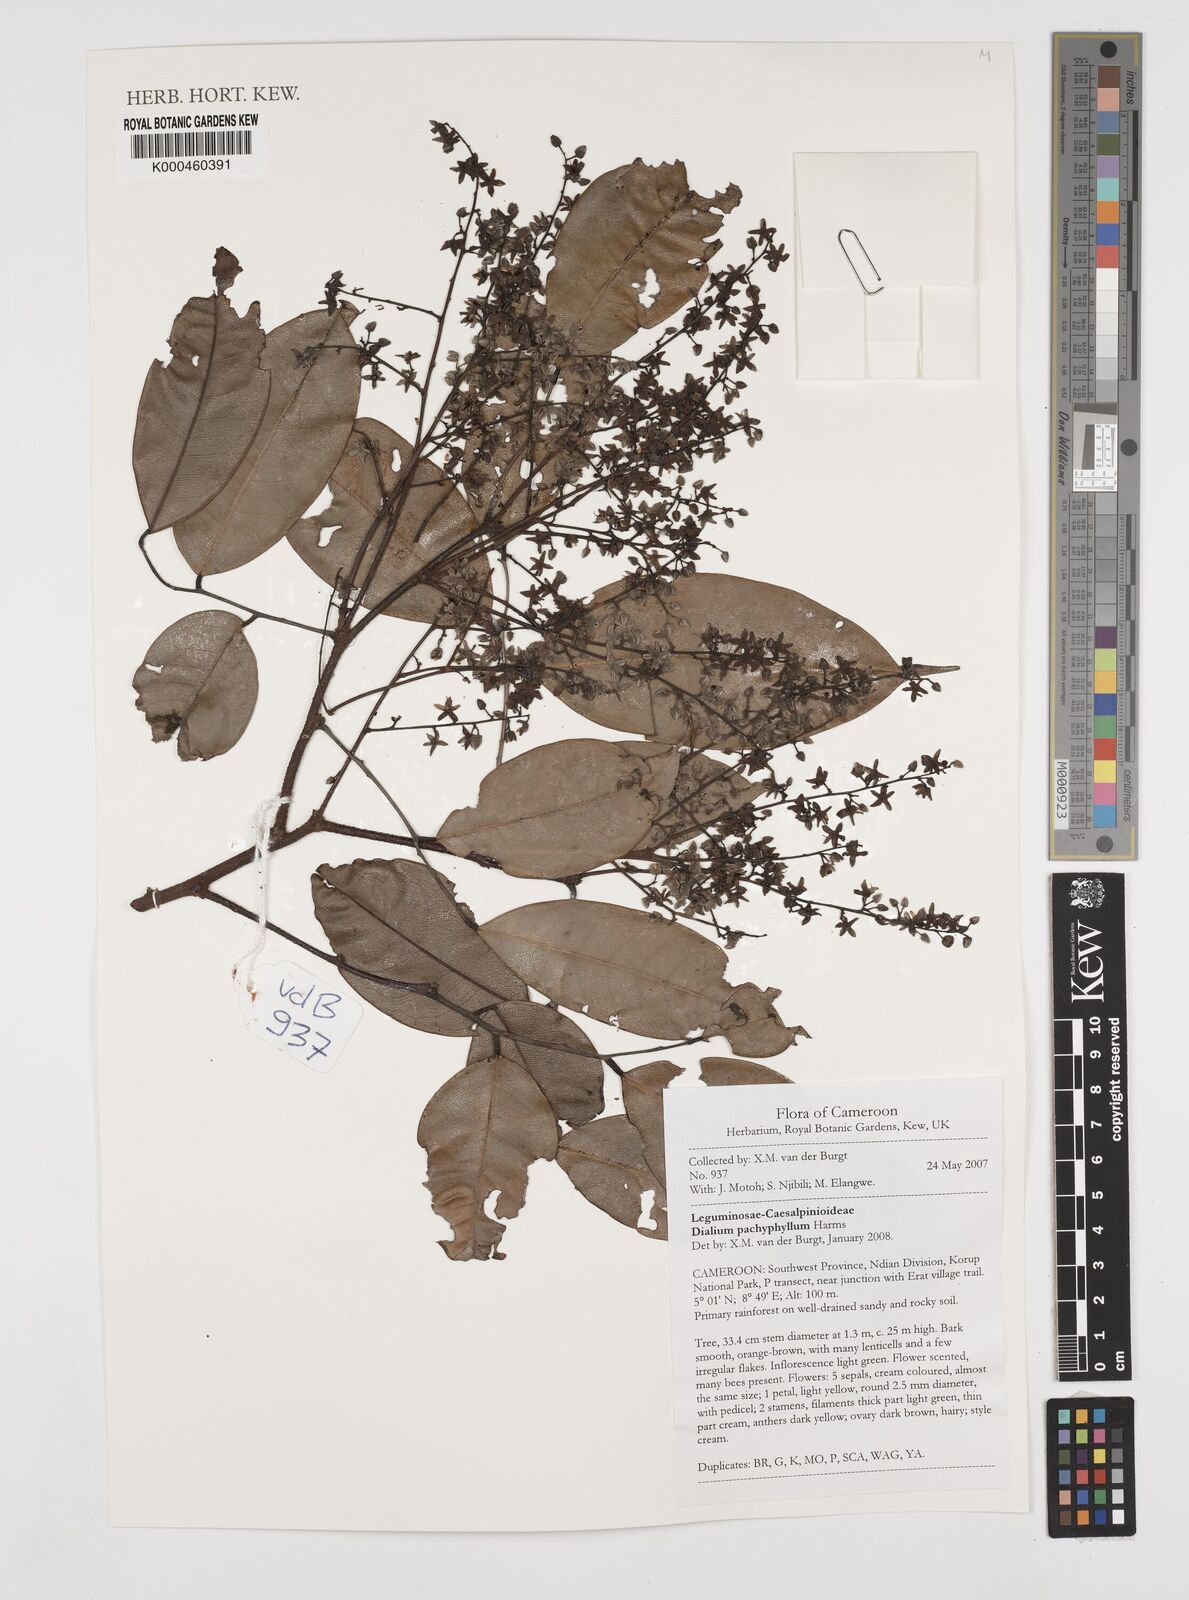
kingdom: Plantae
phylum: Tracheophyta
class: Magnoliopsida
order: Fabales
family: Fabaceae
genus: Dialium
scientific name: Dialium pachyphyllum
